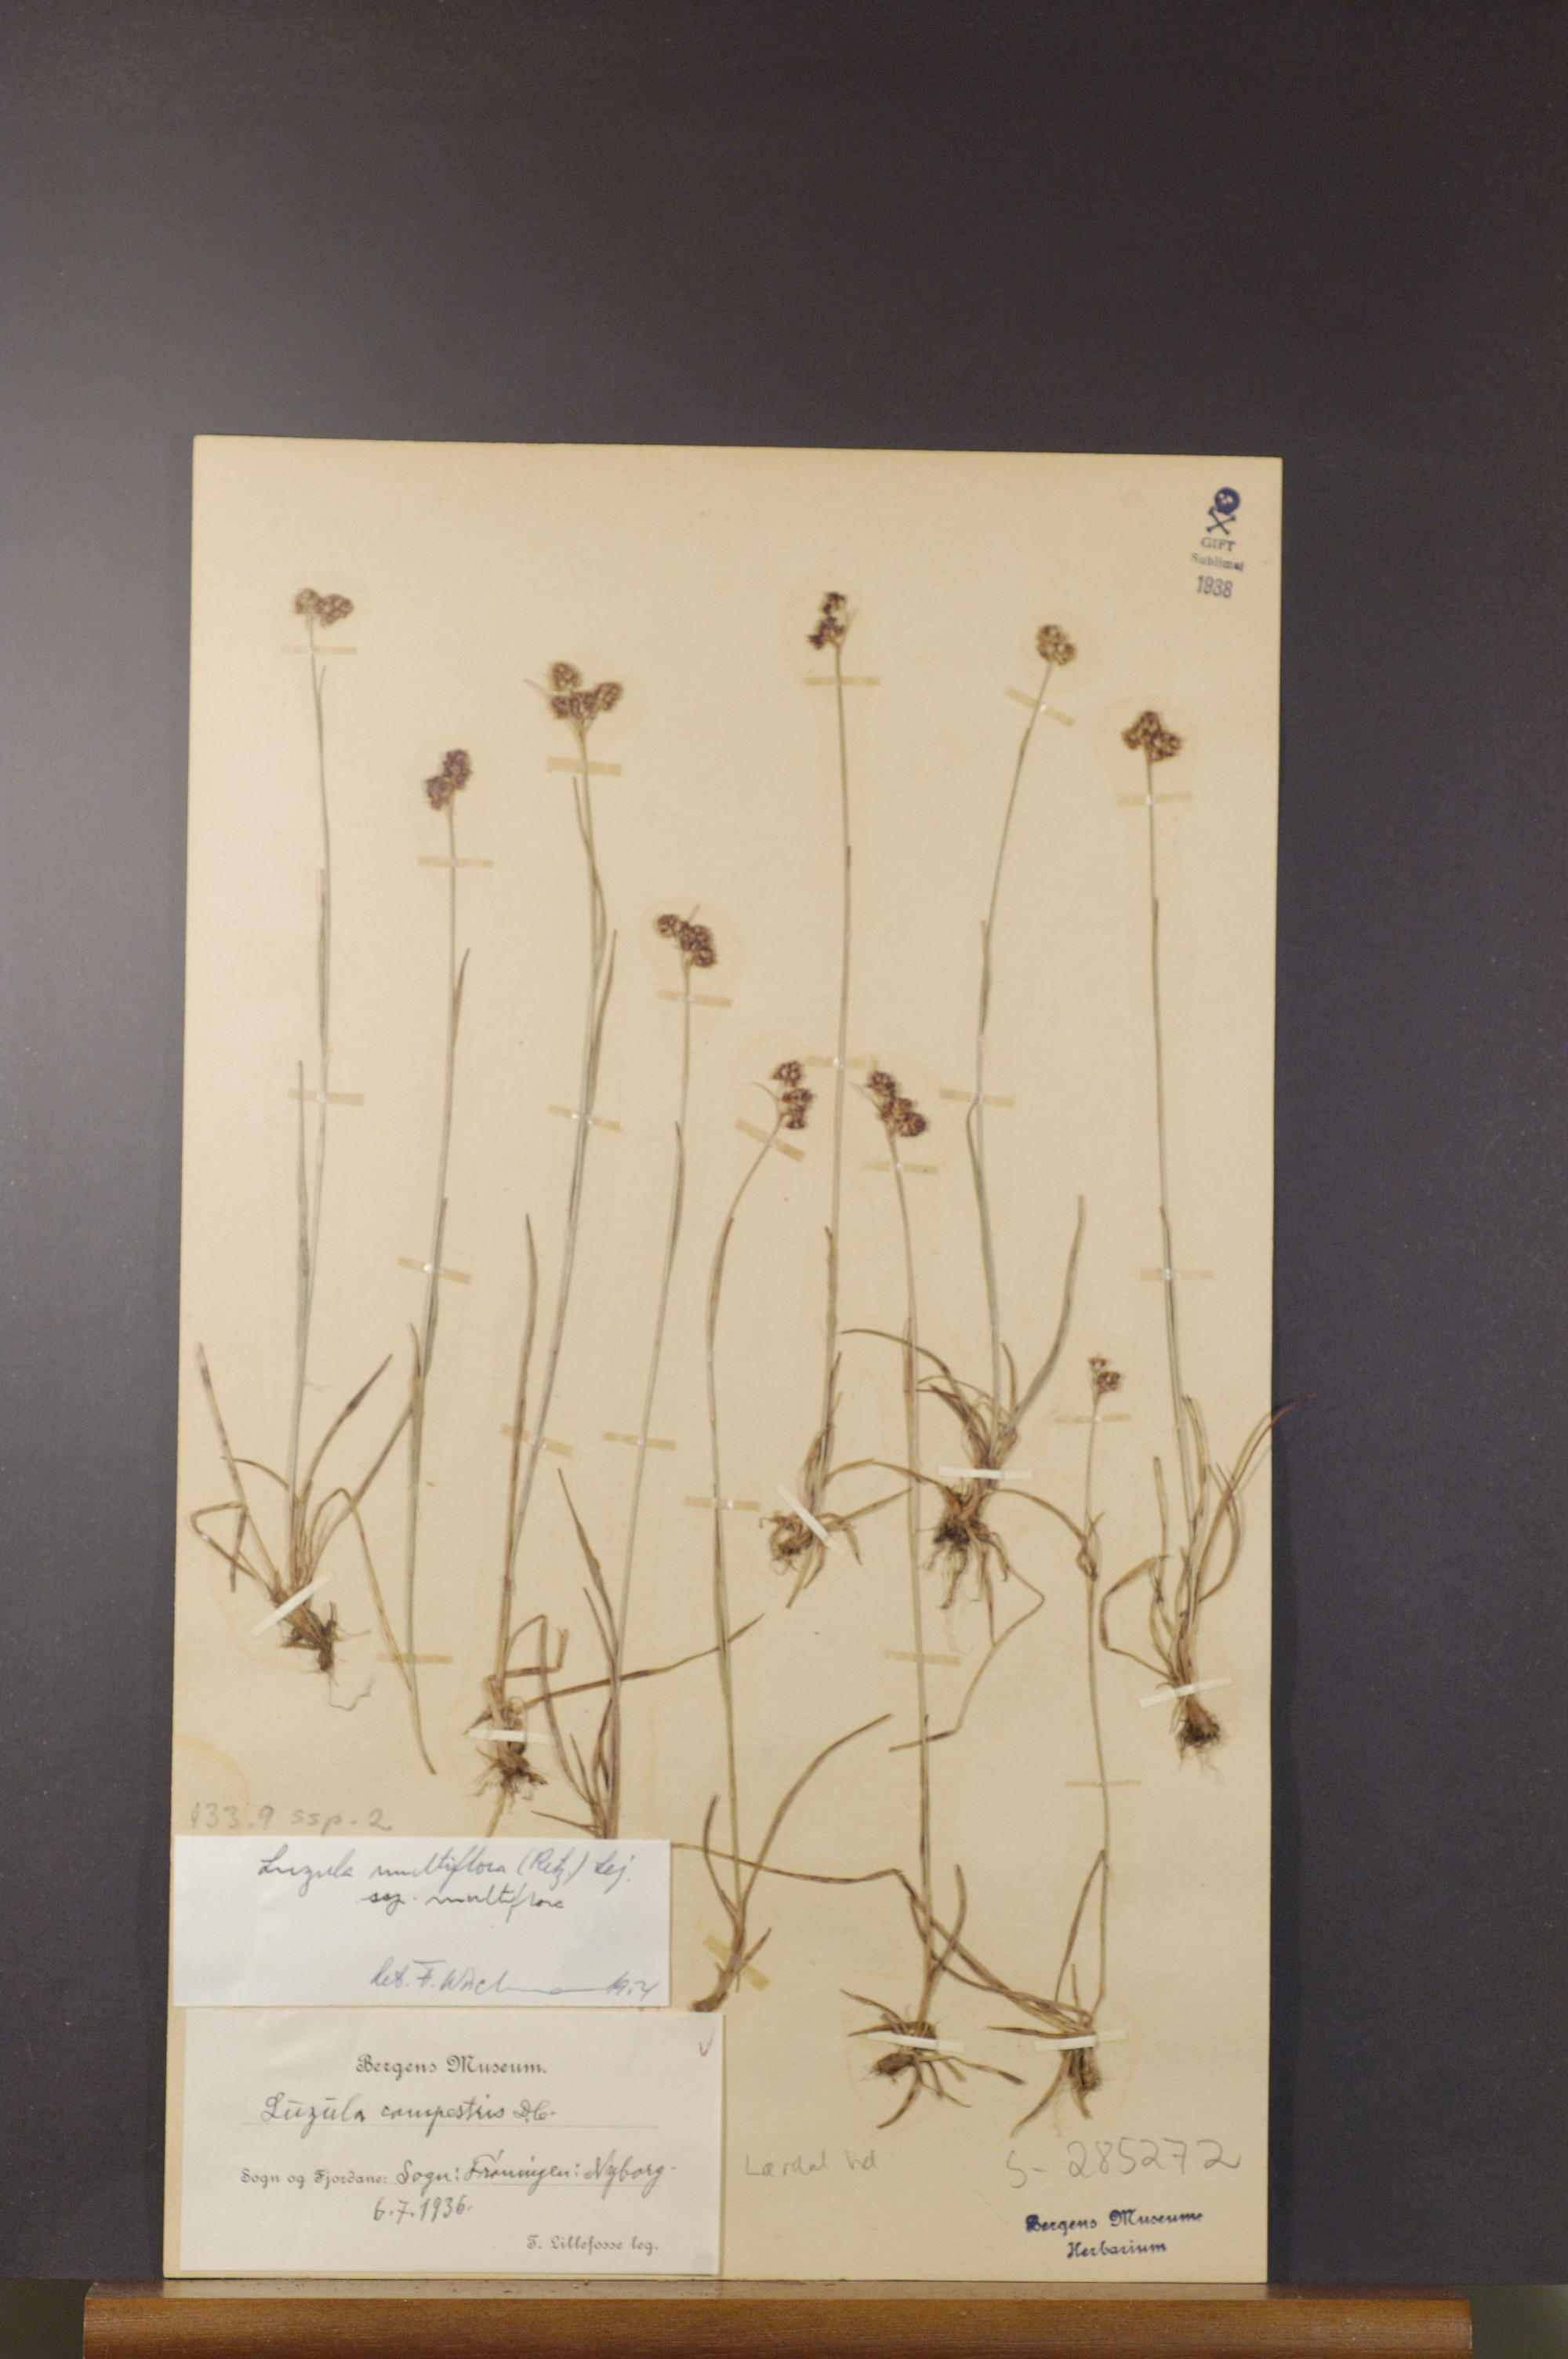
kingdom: Plantae
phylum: Tracheophyta
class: Liliopsida
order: Poales
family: Juncaceae
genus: Luzula
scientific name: Luzula multiflora
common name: Heath wood-rush
